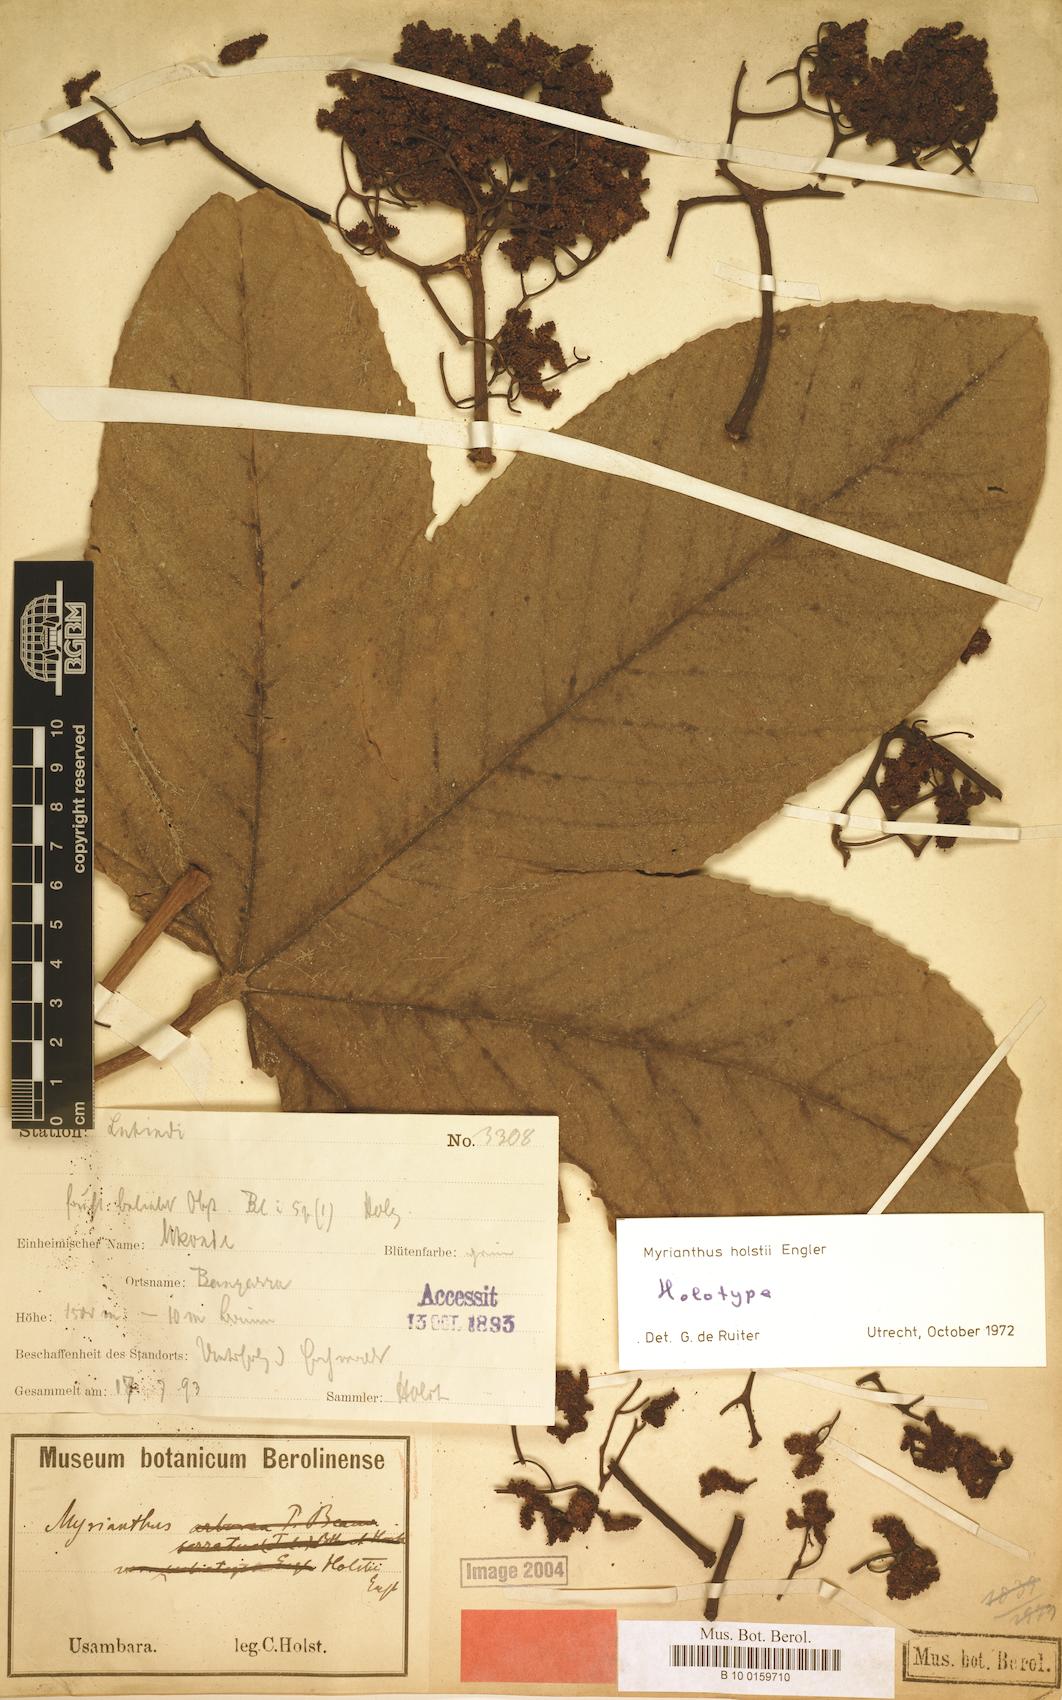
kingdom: Plantae
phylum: Tracheophyta
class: Magnoliopsida
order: Rosales
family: Urticaceae
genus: Myrianthus
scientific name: Myrianthus holstii
